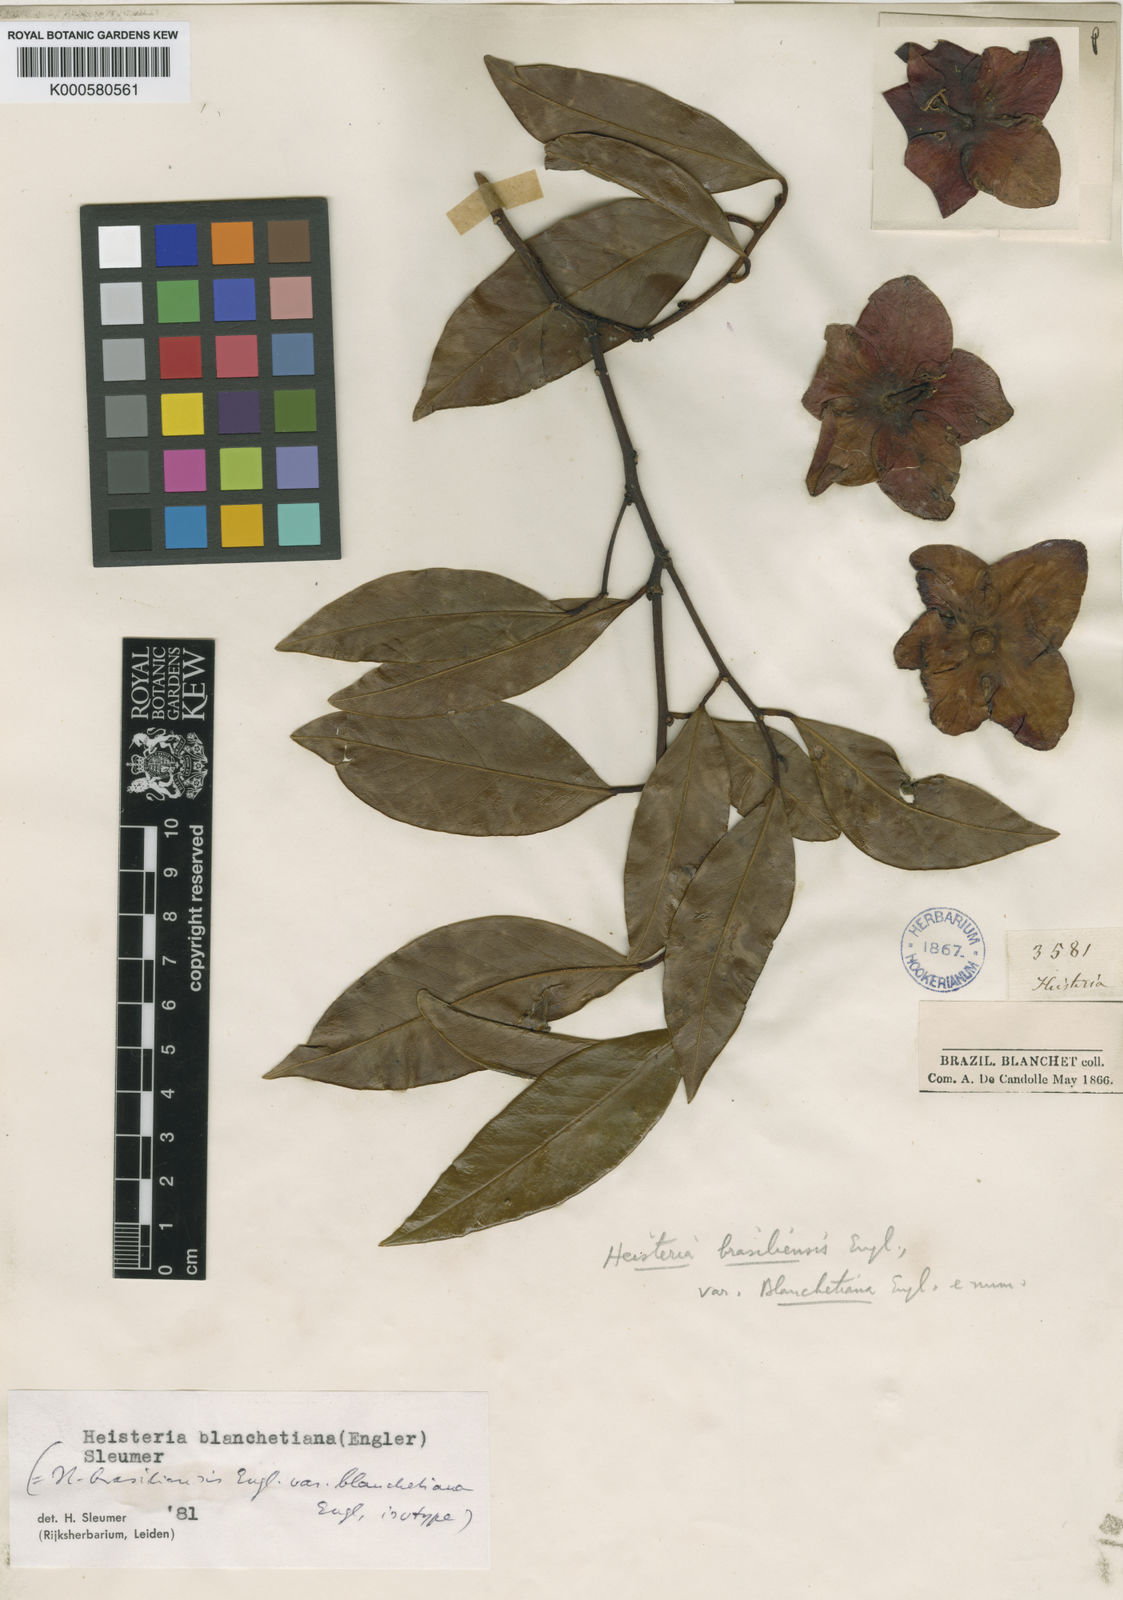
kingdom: Plantae
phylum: Tracheophyta
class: Magnoliopsida
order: Santalales
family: Erythropalaceae
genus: Heisteria
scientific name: Heisteria blanchetiana
